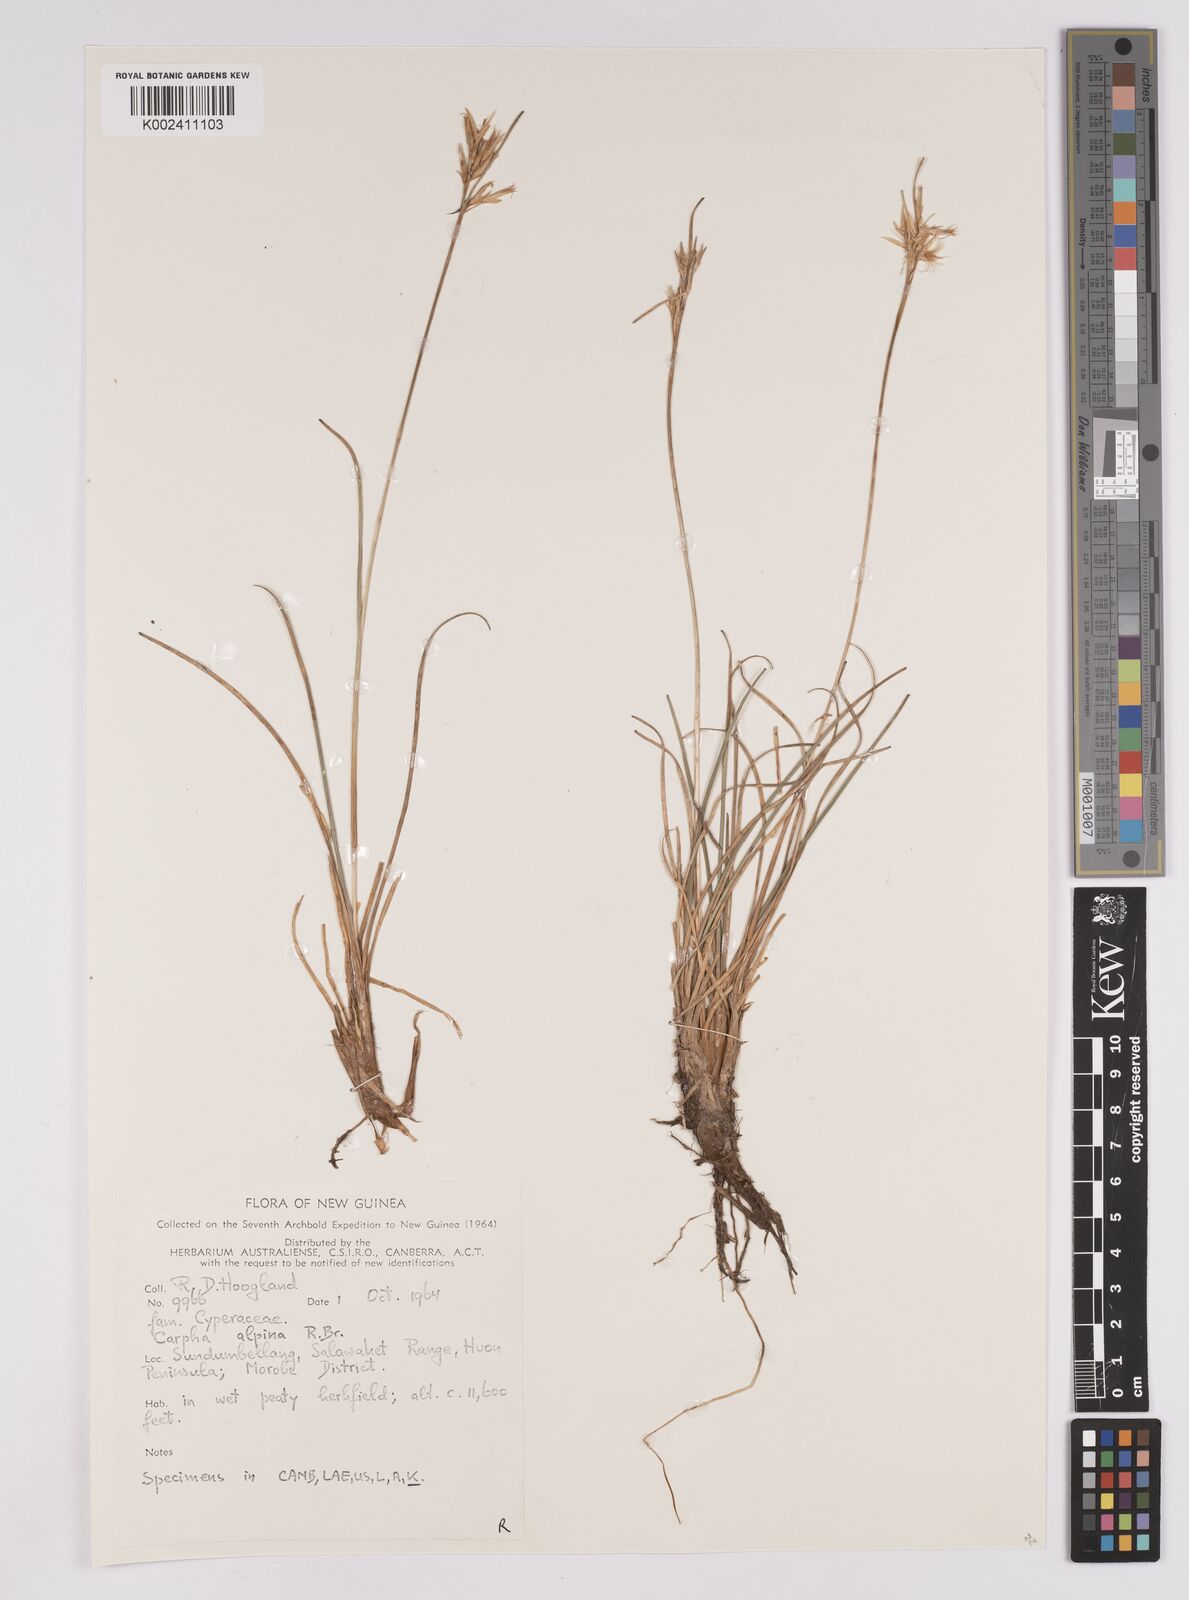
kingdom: Plantae
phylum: Tracheophyta
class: Liliopsida
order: Poales
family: Cyperaceae
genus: Carpha
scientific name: Carpha alpina
